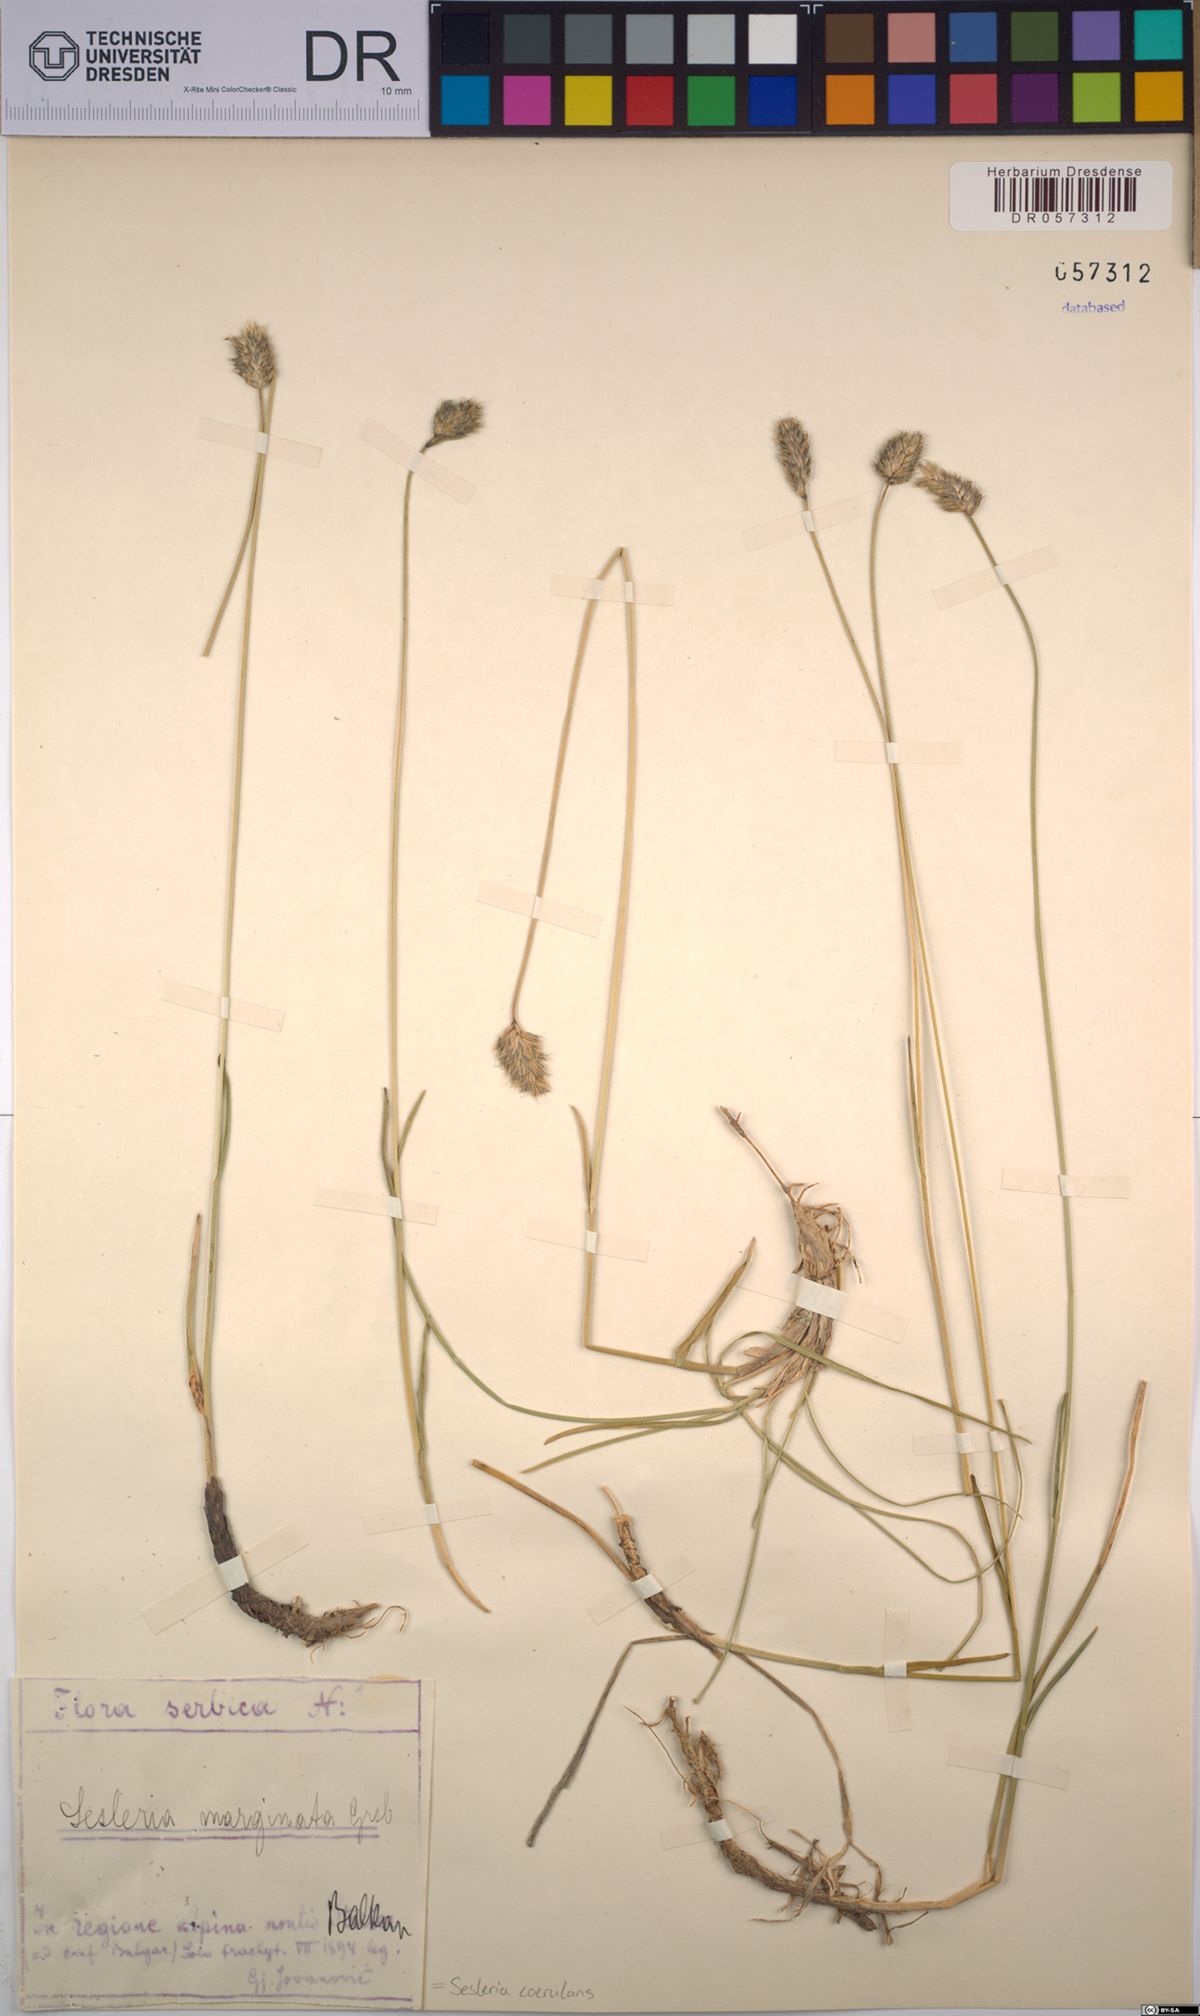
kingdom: Plantae
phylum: Tracheophyta
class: Liliopsida
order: Poales
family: Poaceae
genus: Sesleria
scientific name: Sesleria coerulans
